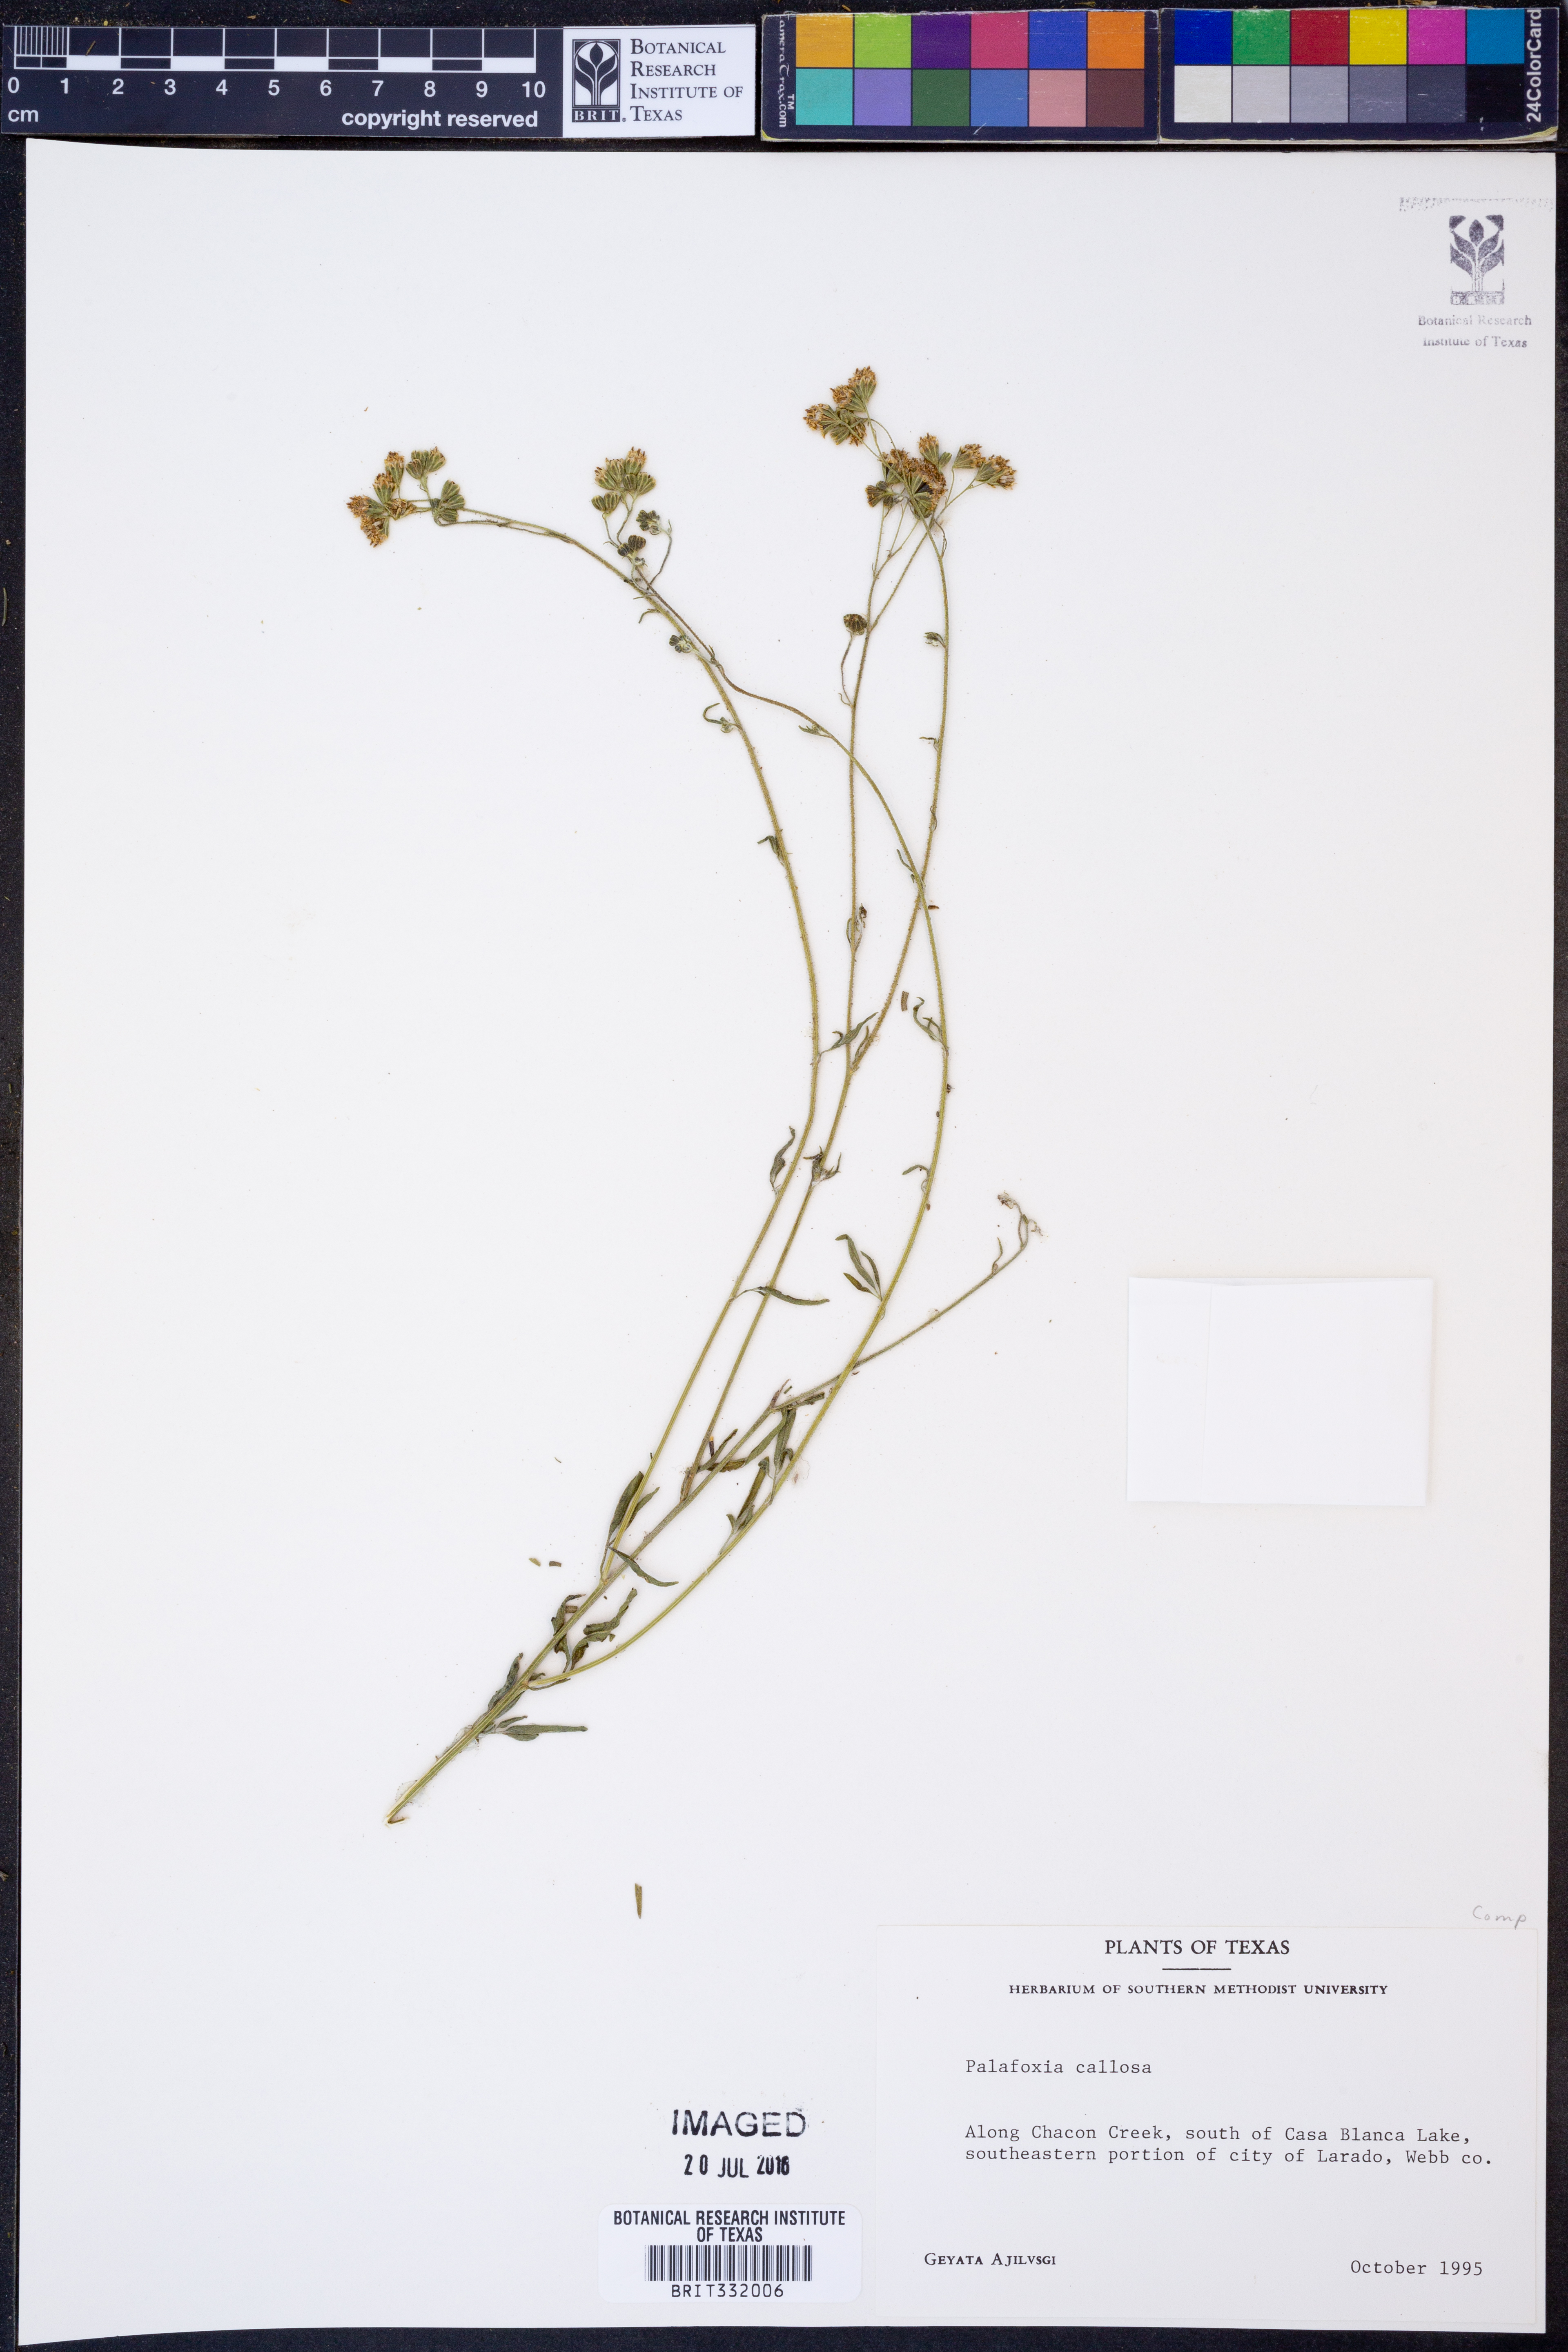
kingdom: Plantae
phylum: Tracheophyta
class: Magnoliopsida
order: Asterales
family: Asteraceae
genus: Palafoxia
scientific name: Palafoxia callosa
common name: Small palafox
